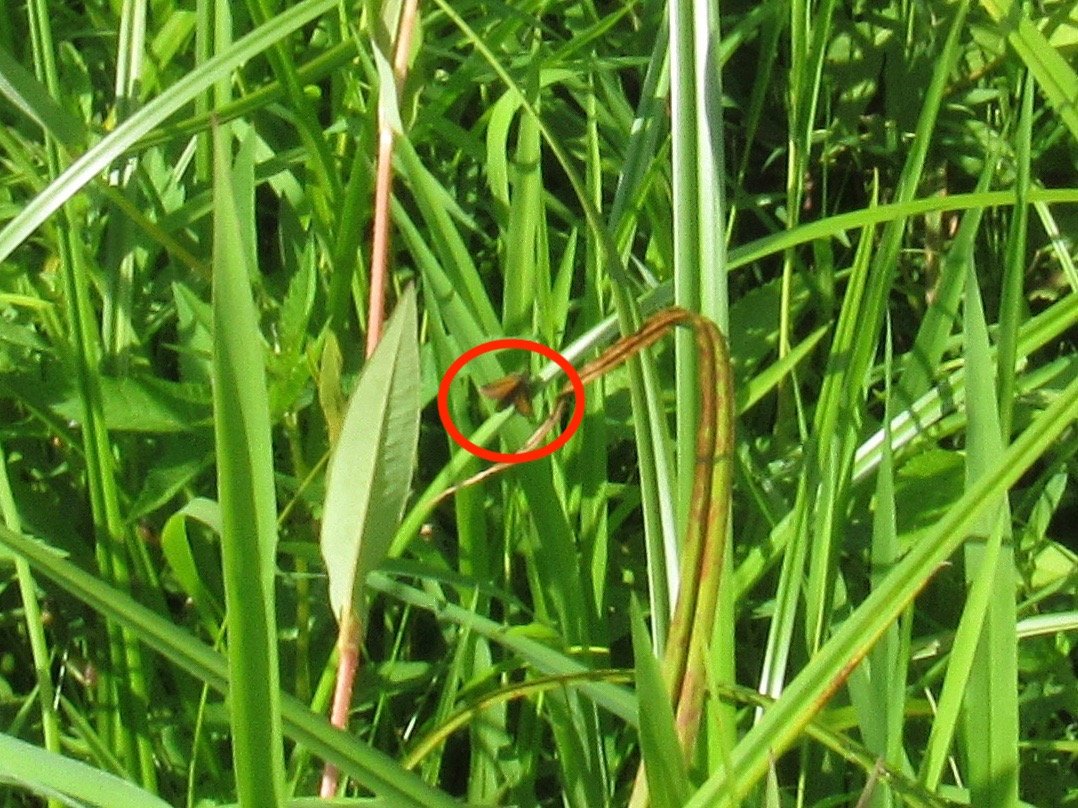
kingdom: Animalia
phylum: Arthropoda
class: Insecta
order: Lepidoptera
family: Hesperiidae
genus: Ancyloxypha
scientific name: Ancyloxypha numitor
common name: Least Skipper
